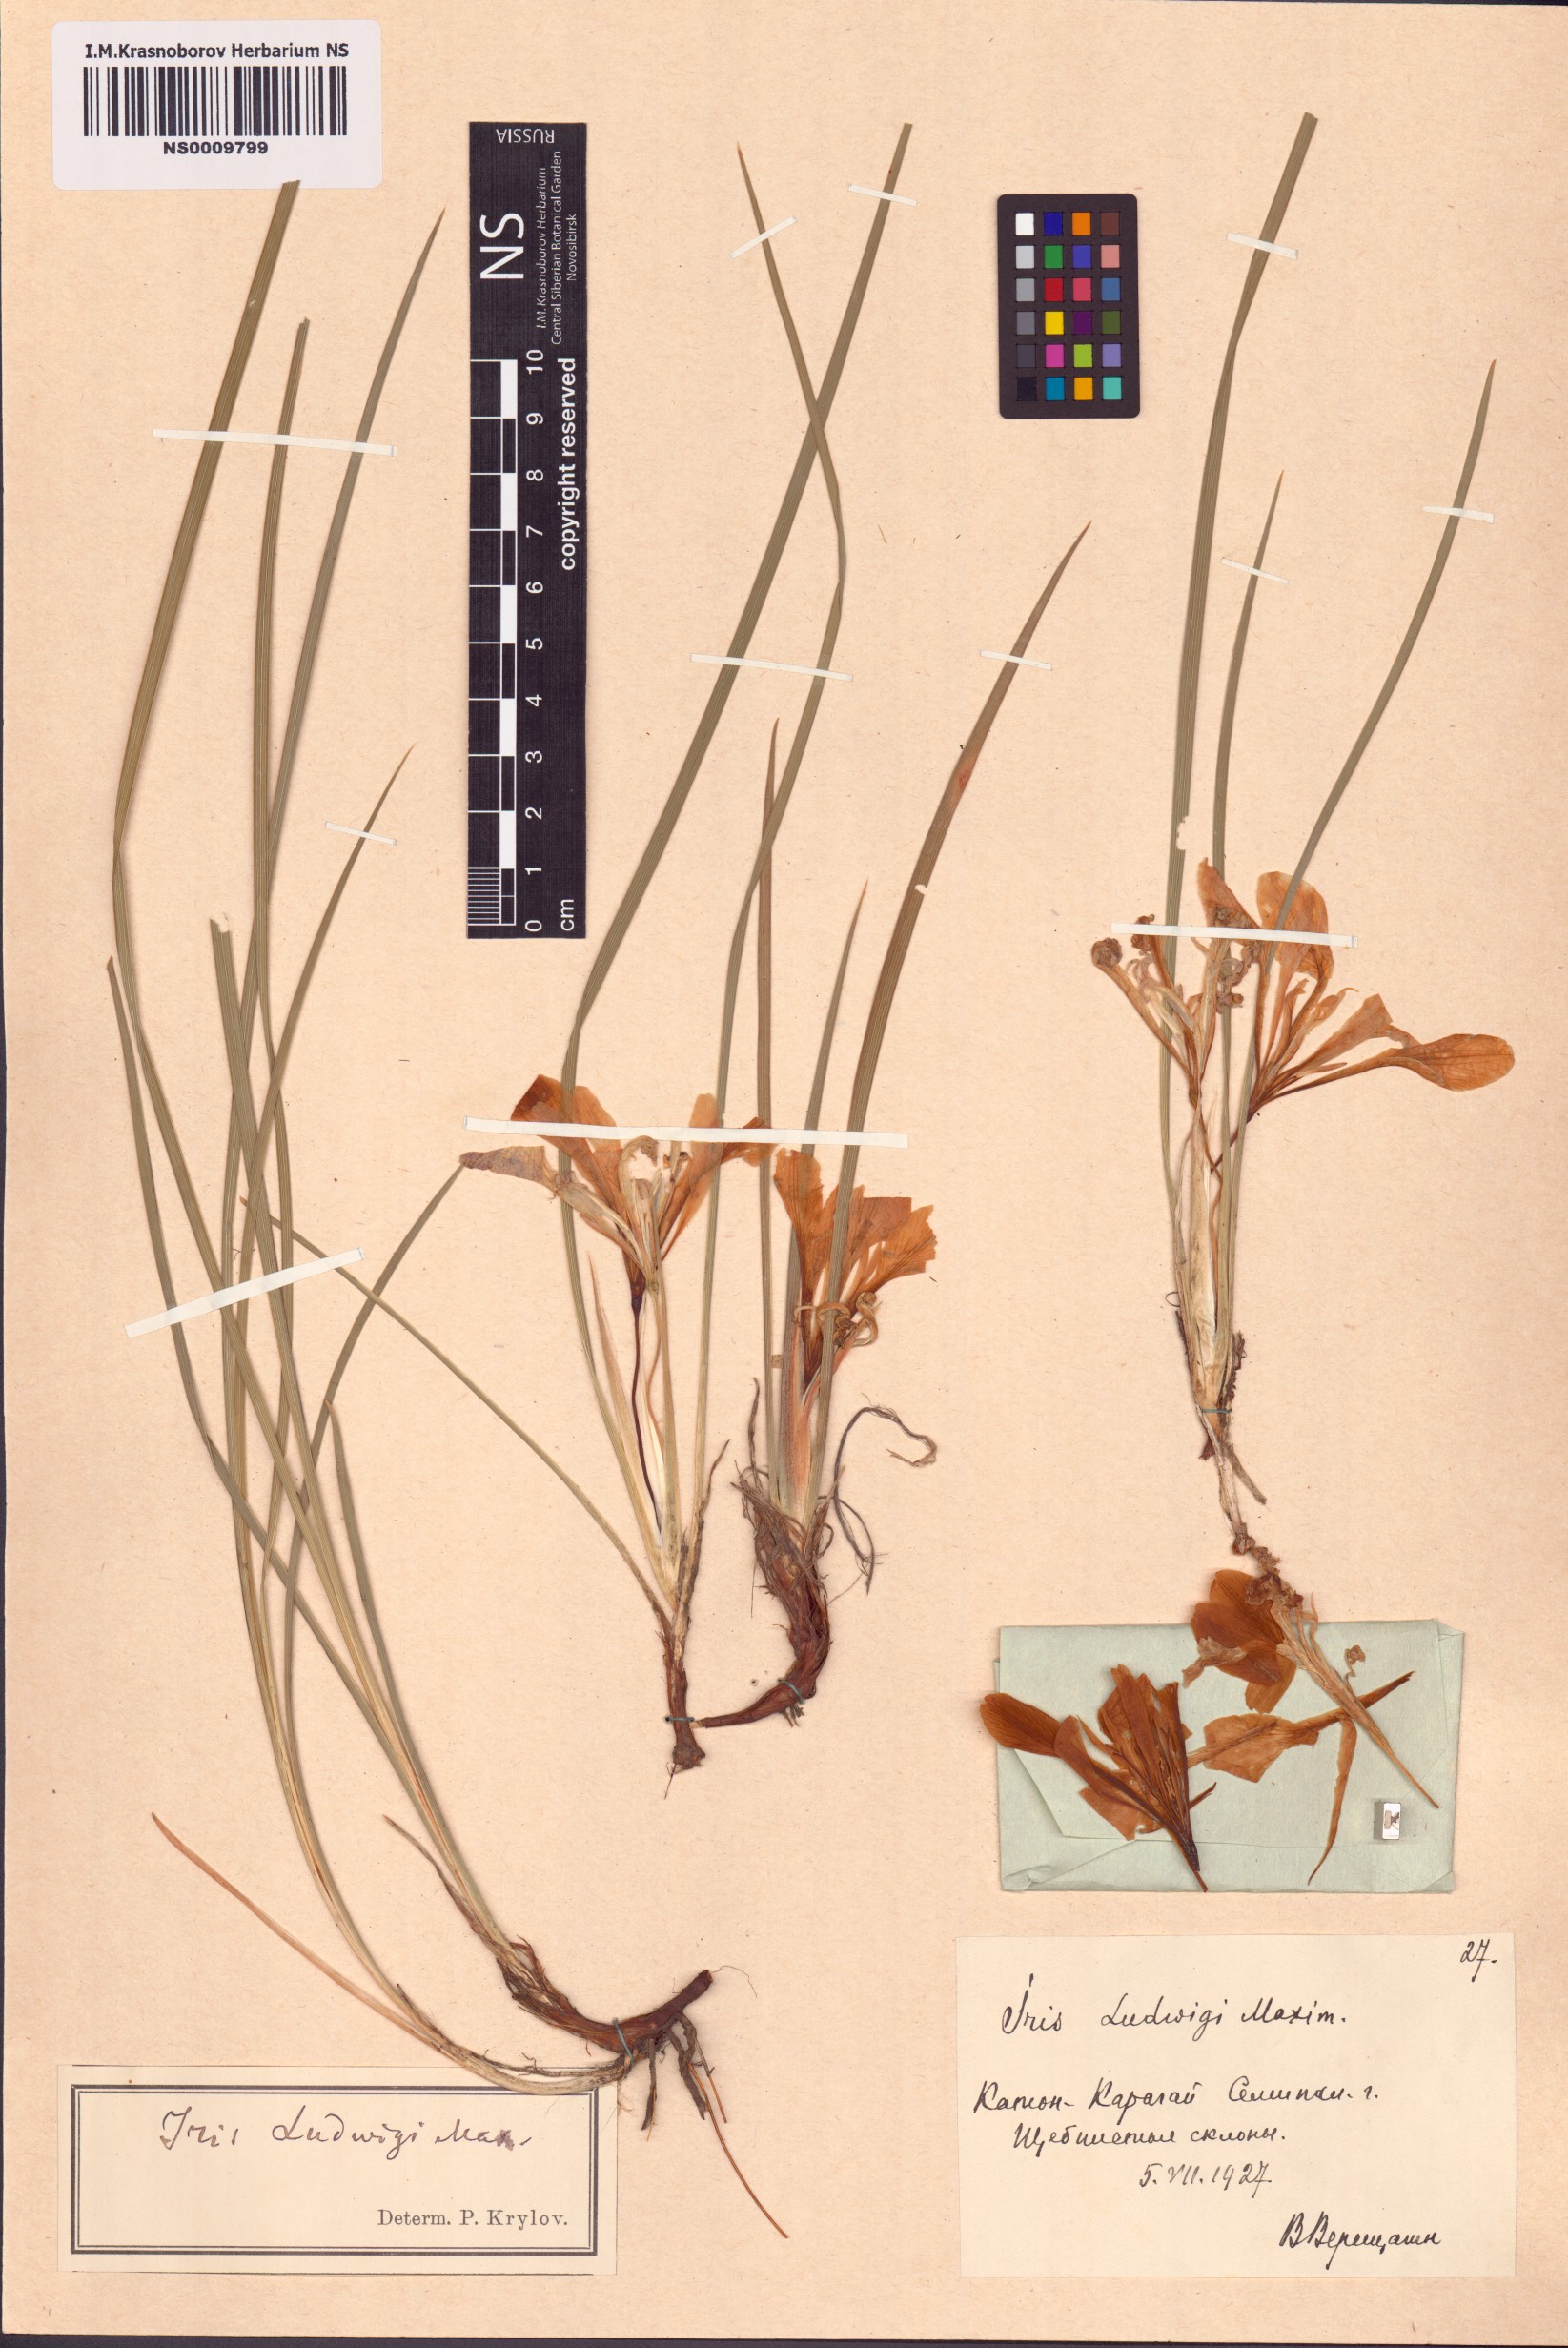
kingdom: Plantae
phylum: Tracheophyta
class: Liliopsida
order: Asparagales
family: Iridaceae
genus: Iris
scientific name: Iris ludwigii
